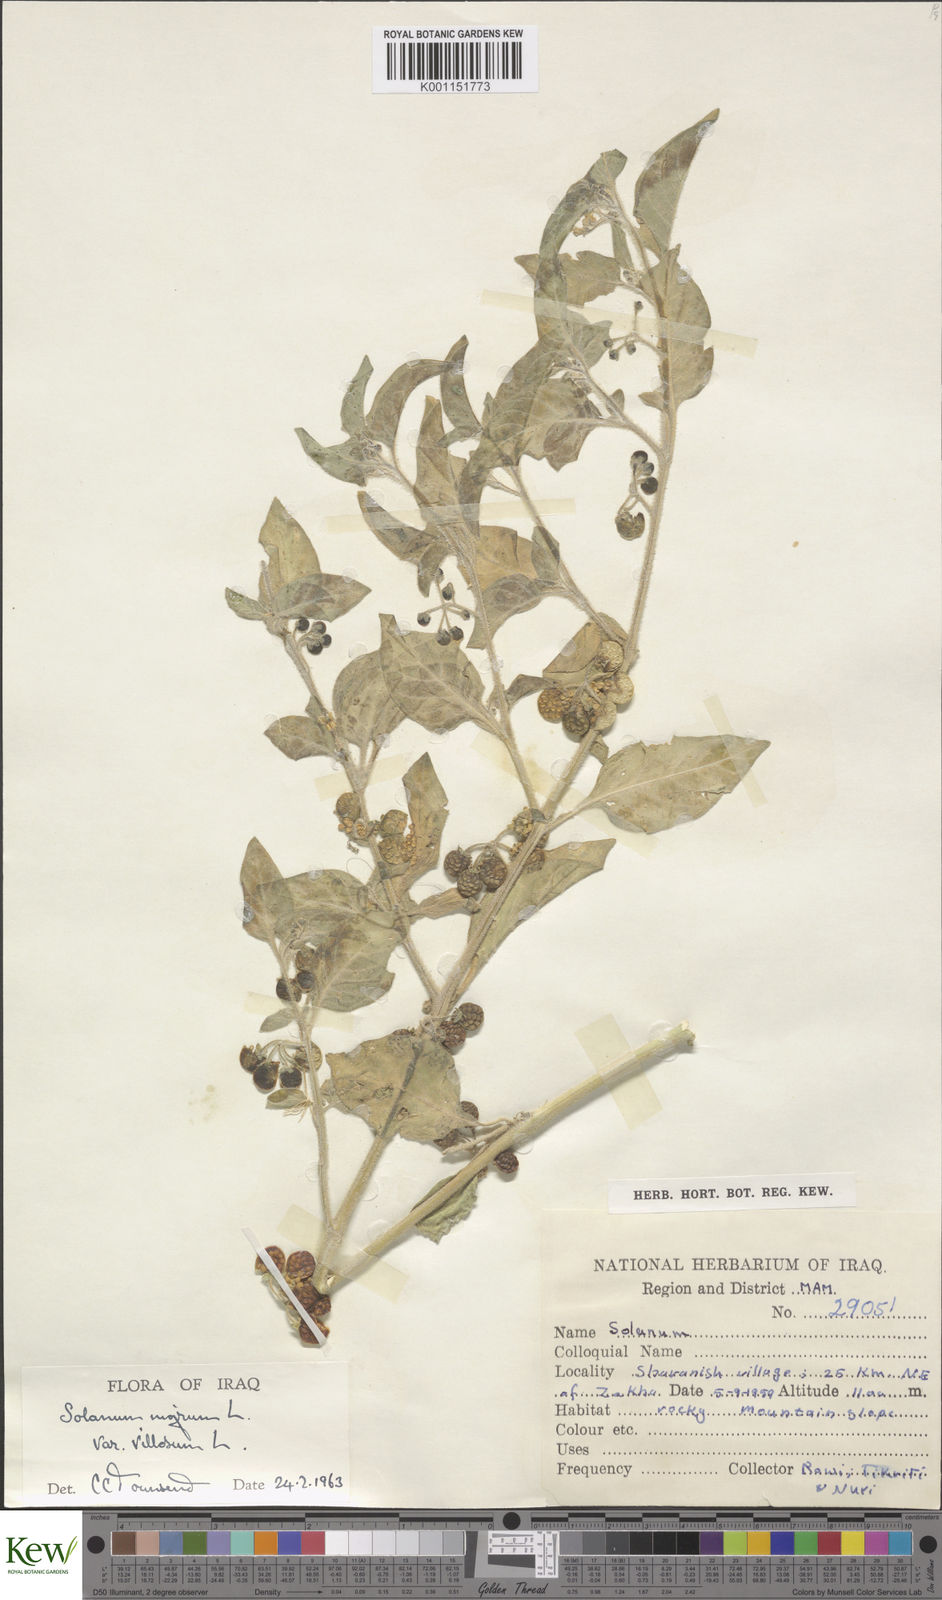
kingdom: Plantae
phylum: Tracheophyta
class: Magnoliopsida
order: Solanales
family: Solanaceae
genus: Solanum
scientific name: Solanum villosum
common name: Red nightshade
